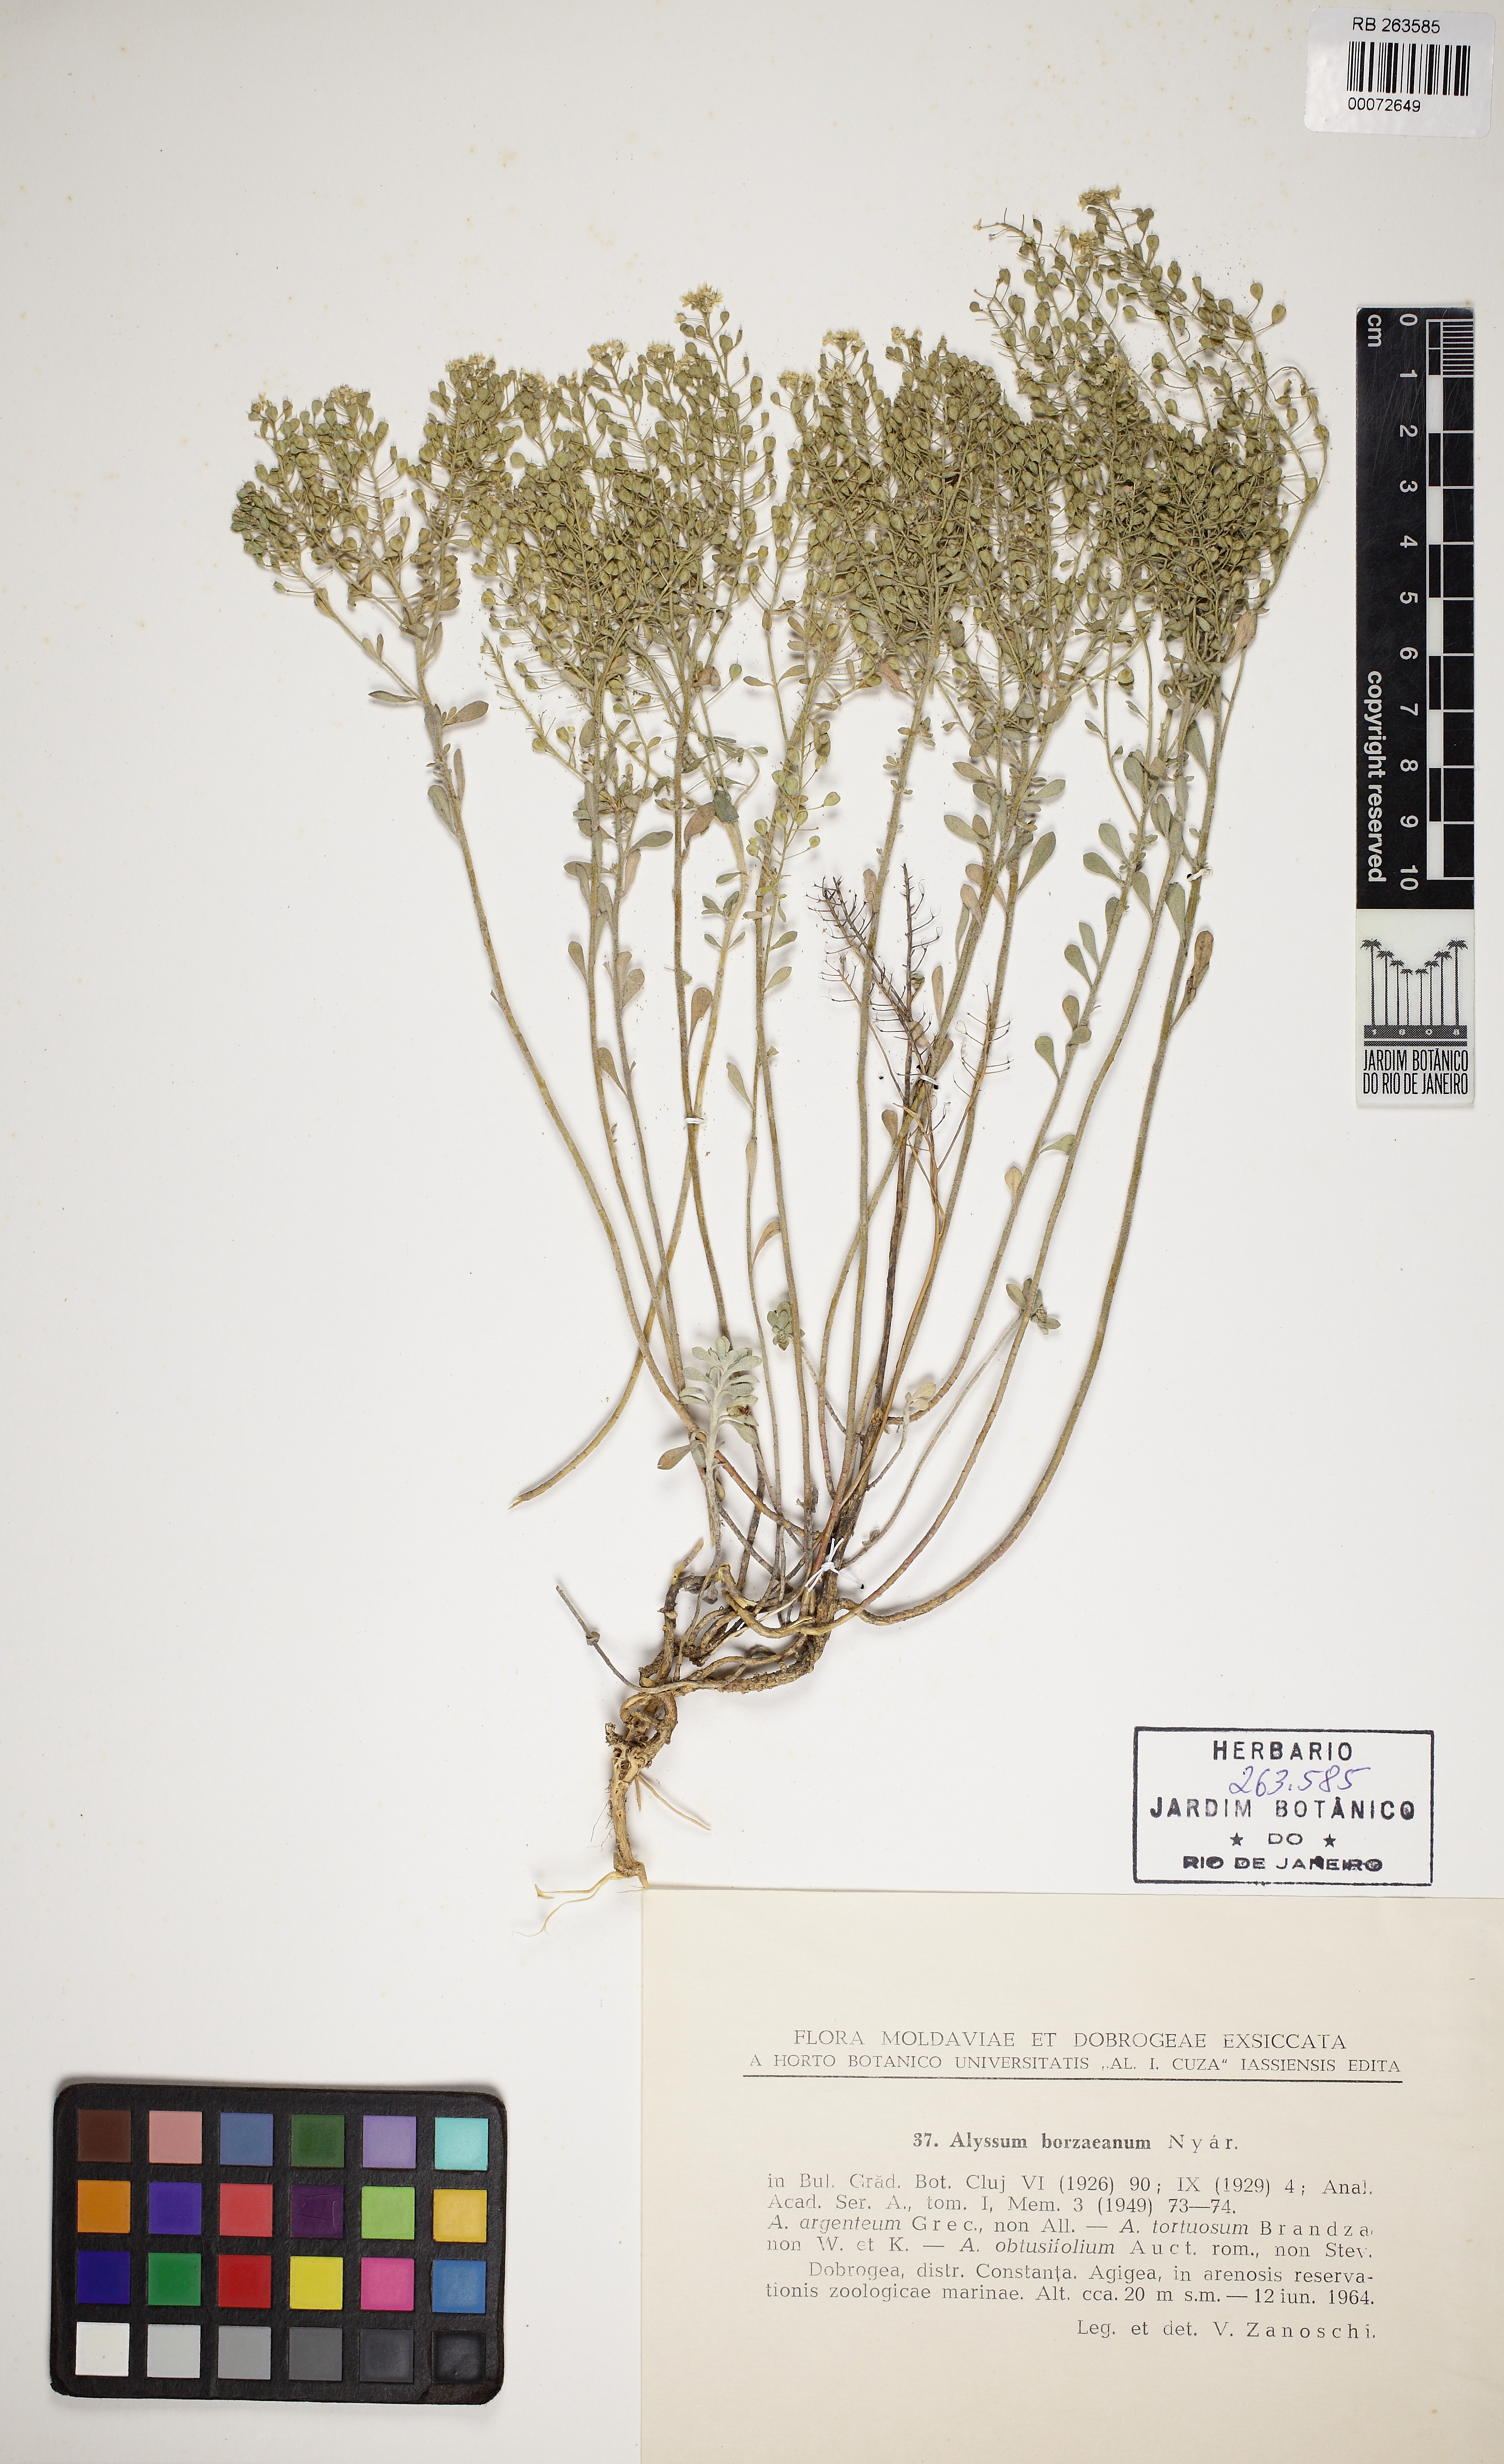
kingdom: Plantae
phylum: Tracheophyta
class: Magnoliopsida
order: Brassicales
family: Brassicaceae
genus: Odontarrhena
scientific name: Odontarrhena borzeana
